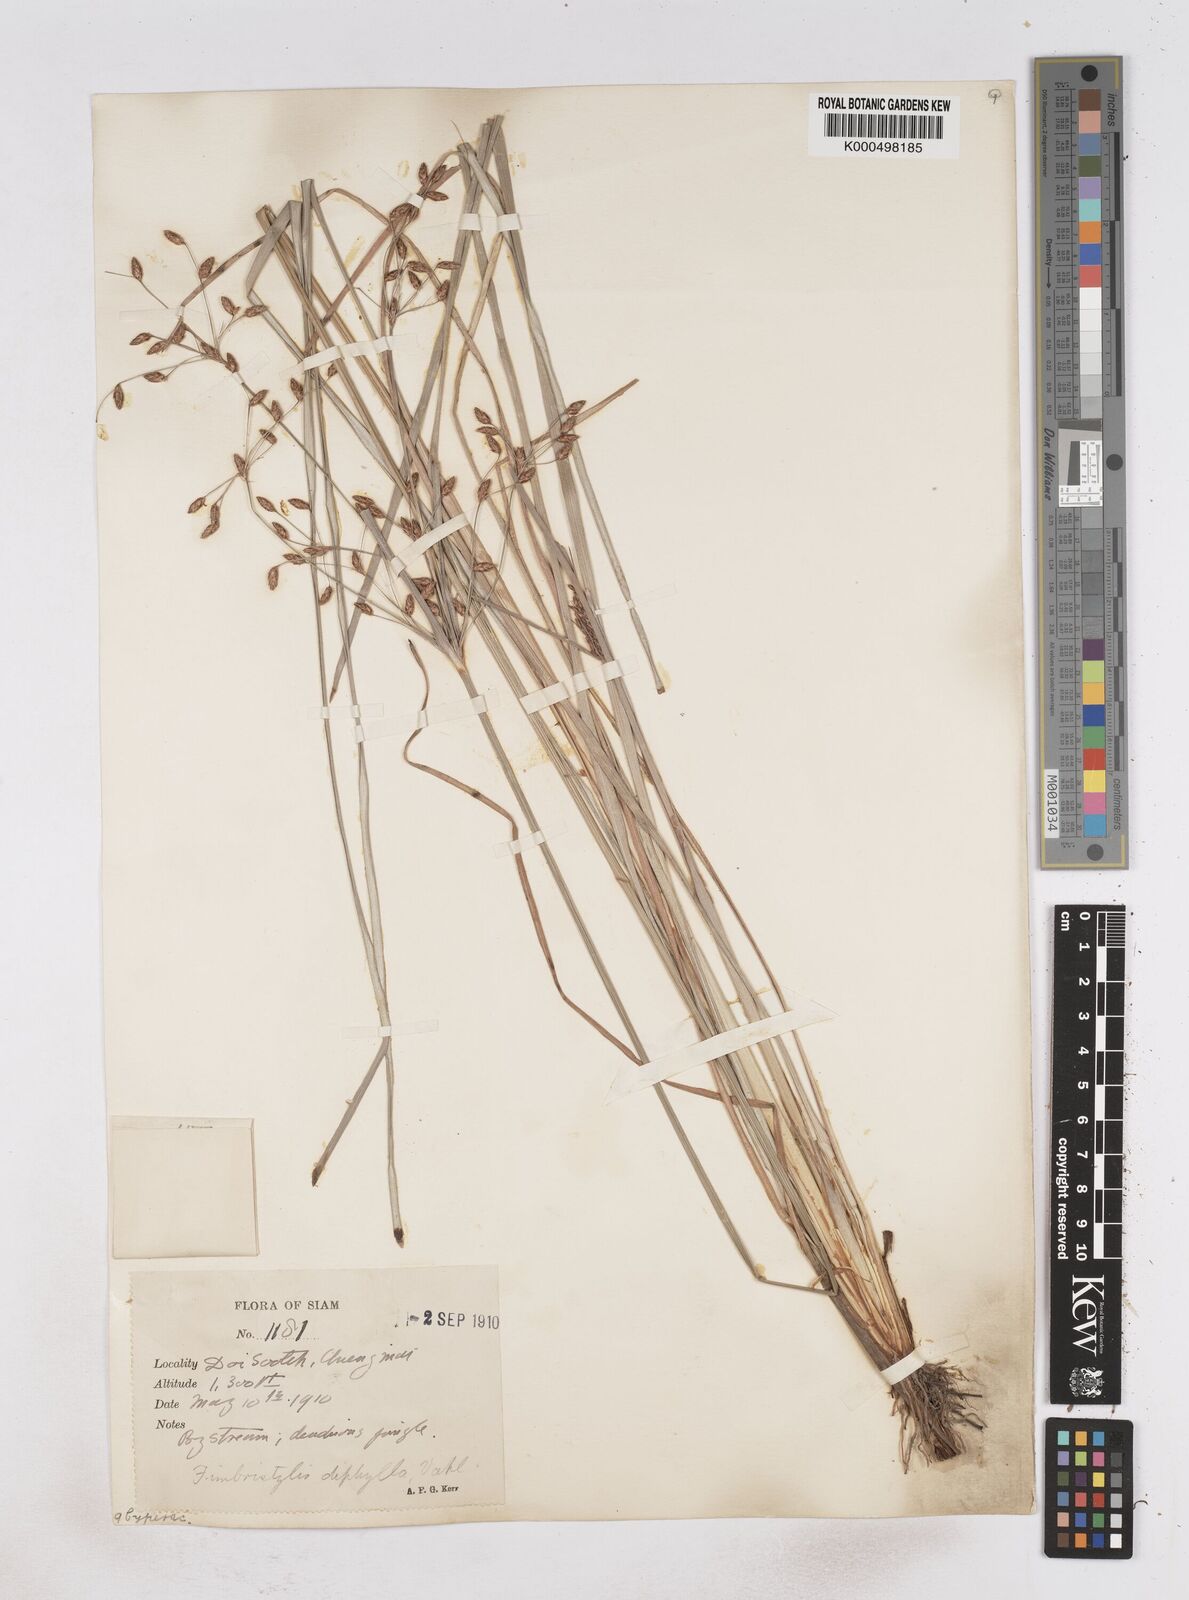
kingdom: Plantae
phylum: Tracheophyta
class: Liliopsida
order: Poales
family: Cyperaceae
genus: Fimbristylis
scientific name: Fimbristylis dichotoma
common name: Forked fimbry
